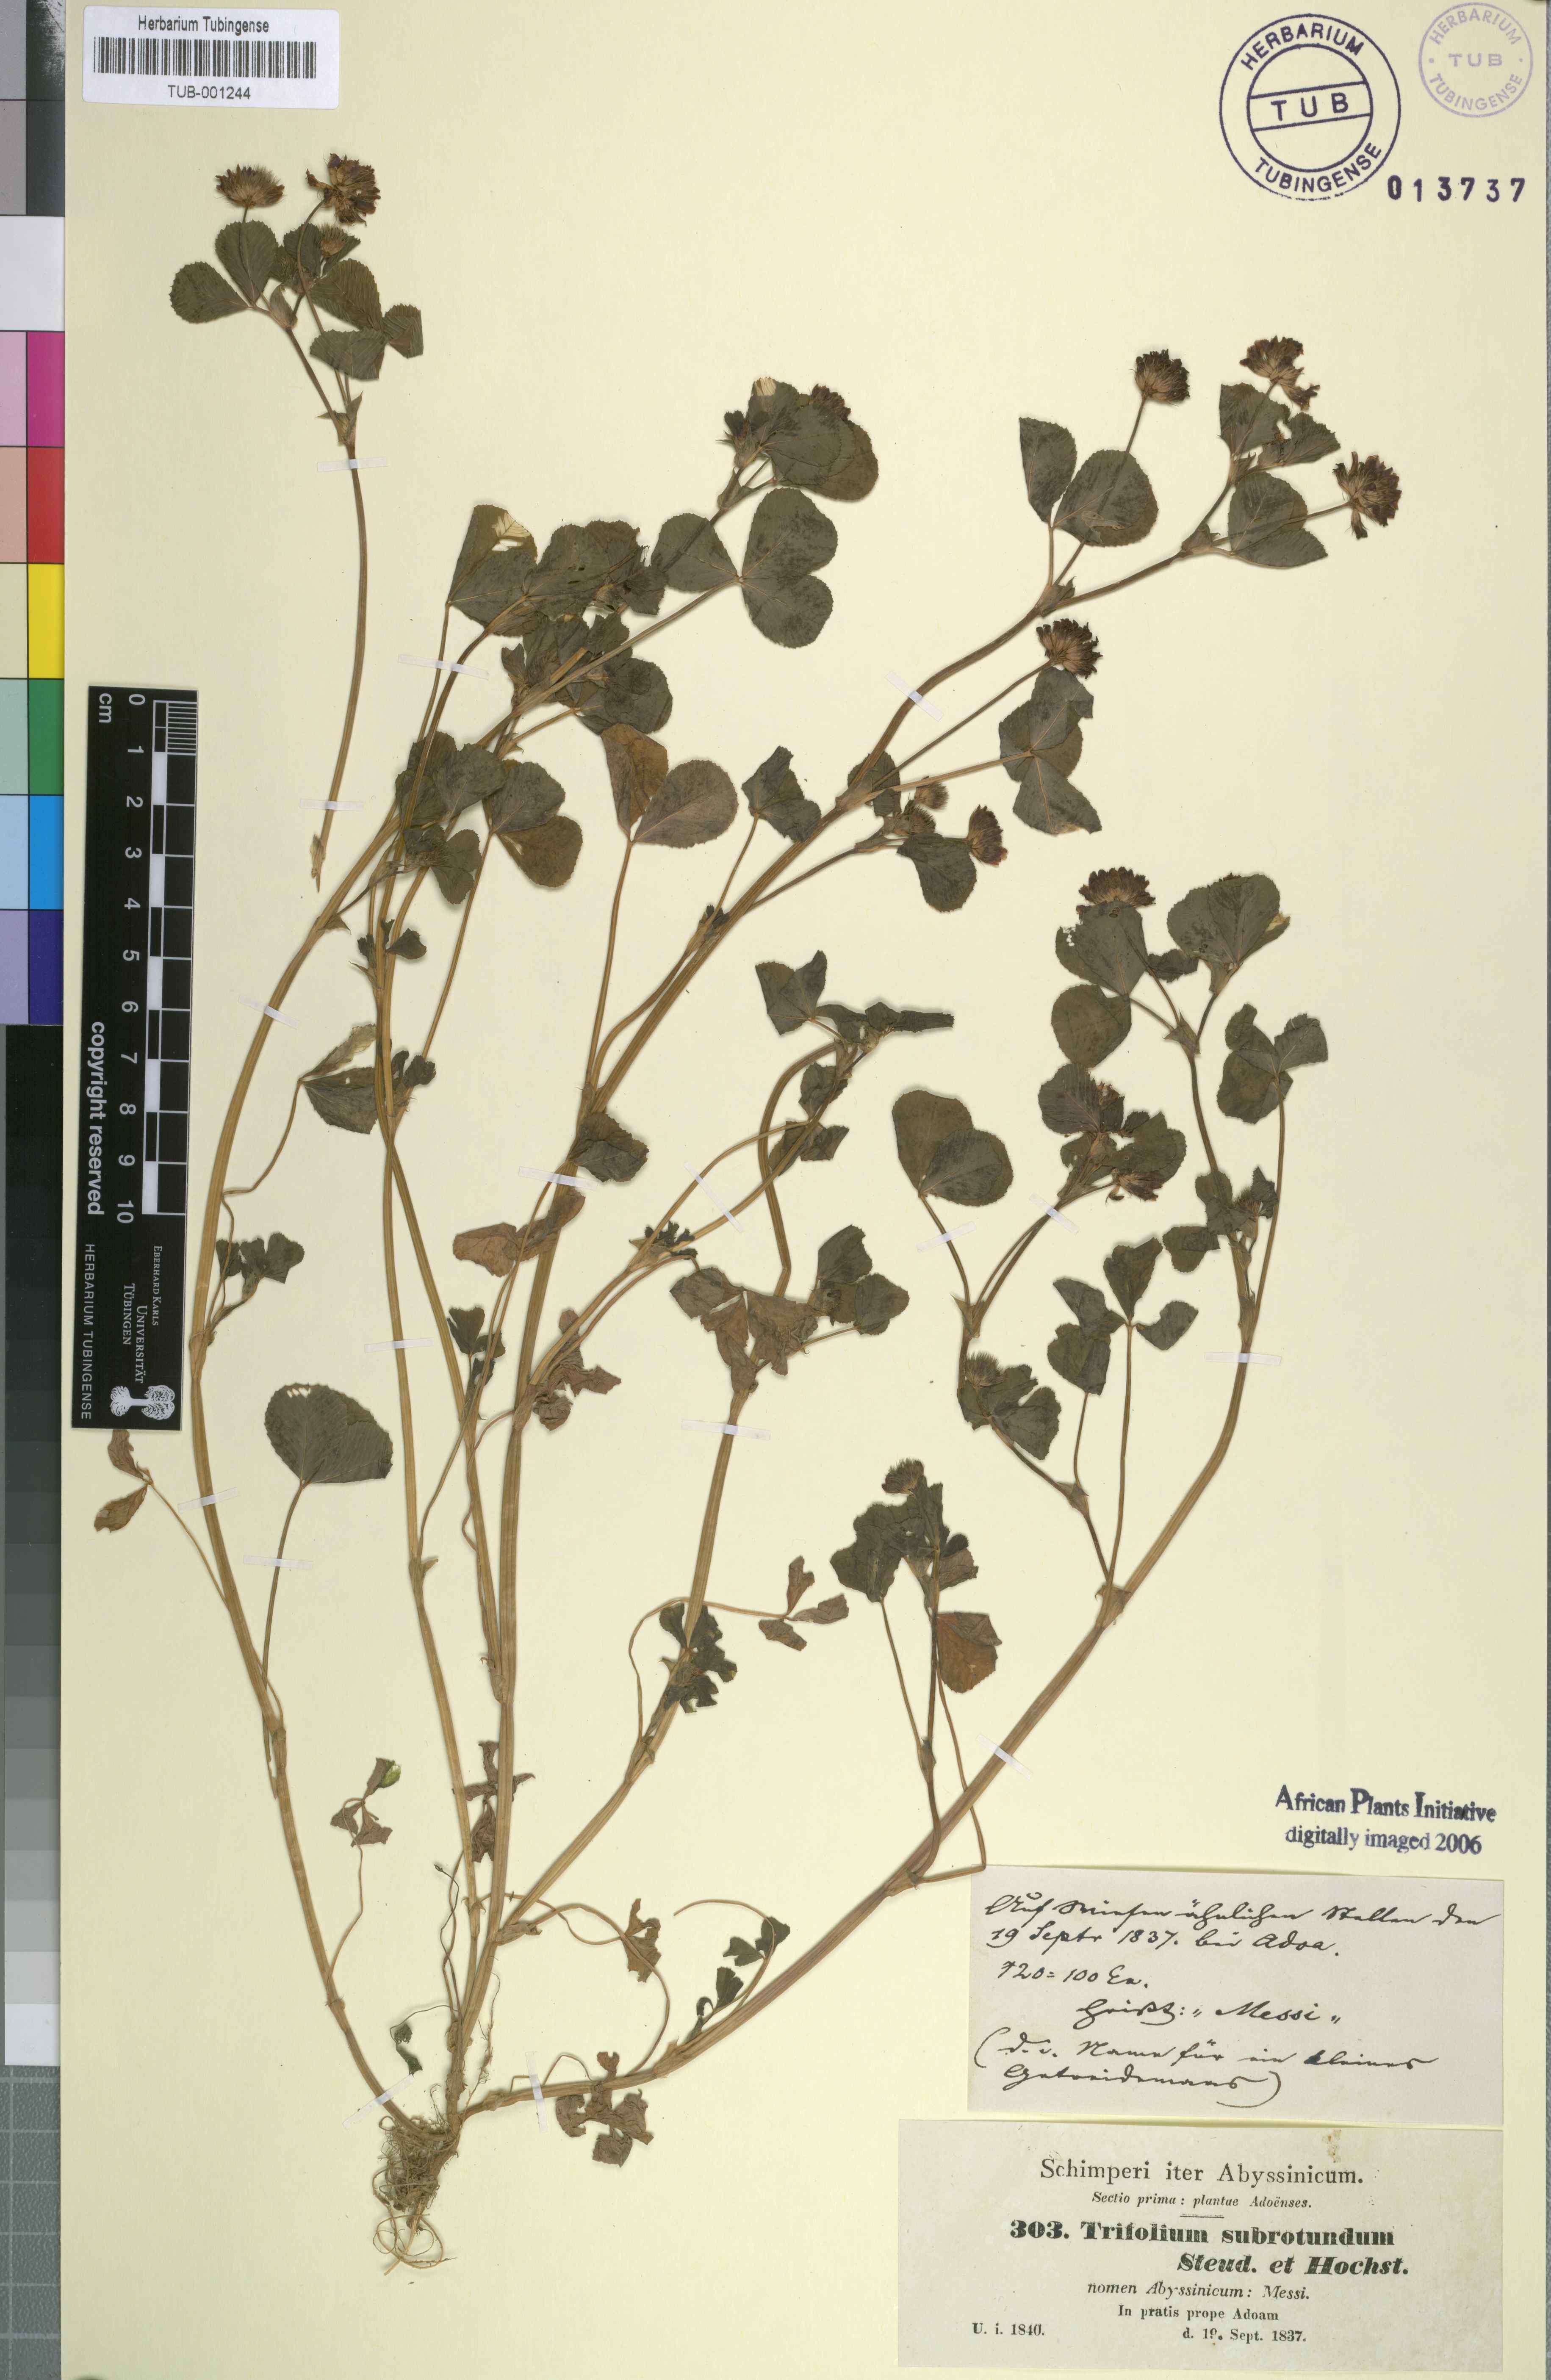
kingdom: Plantae
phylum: Tracheophyta
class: Magnoliopsida
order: Fabales
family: Fabaceae
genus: Trifolium
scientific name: Trifolium rueppellianum
